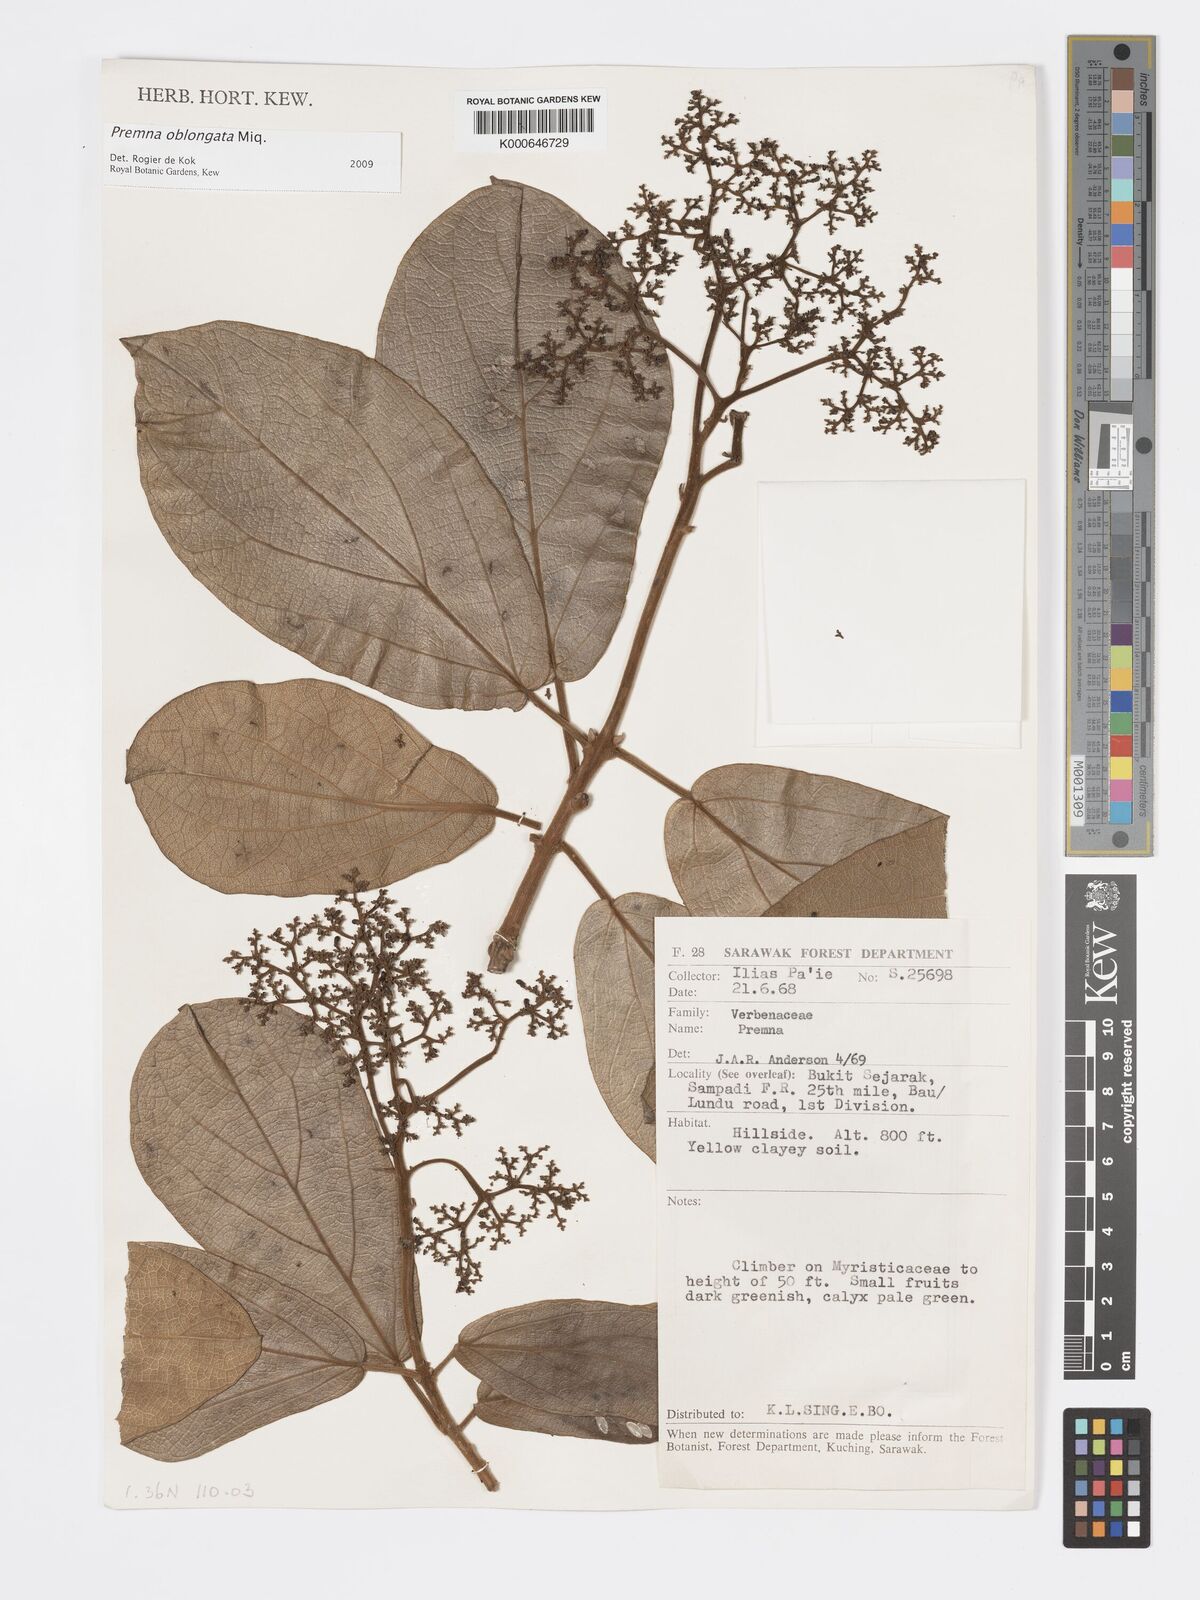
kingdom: Plantae
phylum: Tracheophyta
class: Magnoliopsida
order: Lamiales
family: Lamiaceae
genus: Premna
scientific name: Premna oblongata
